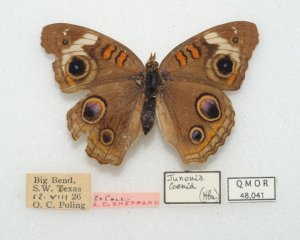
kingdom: Animalia
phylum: Arthropoda
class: Insecta
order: Lepidoptera
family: Nymphalidae
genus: Junonia
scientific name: Junonia coenia
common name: Common Buckeye
